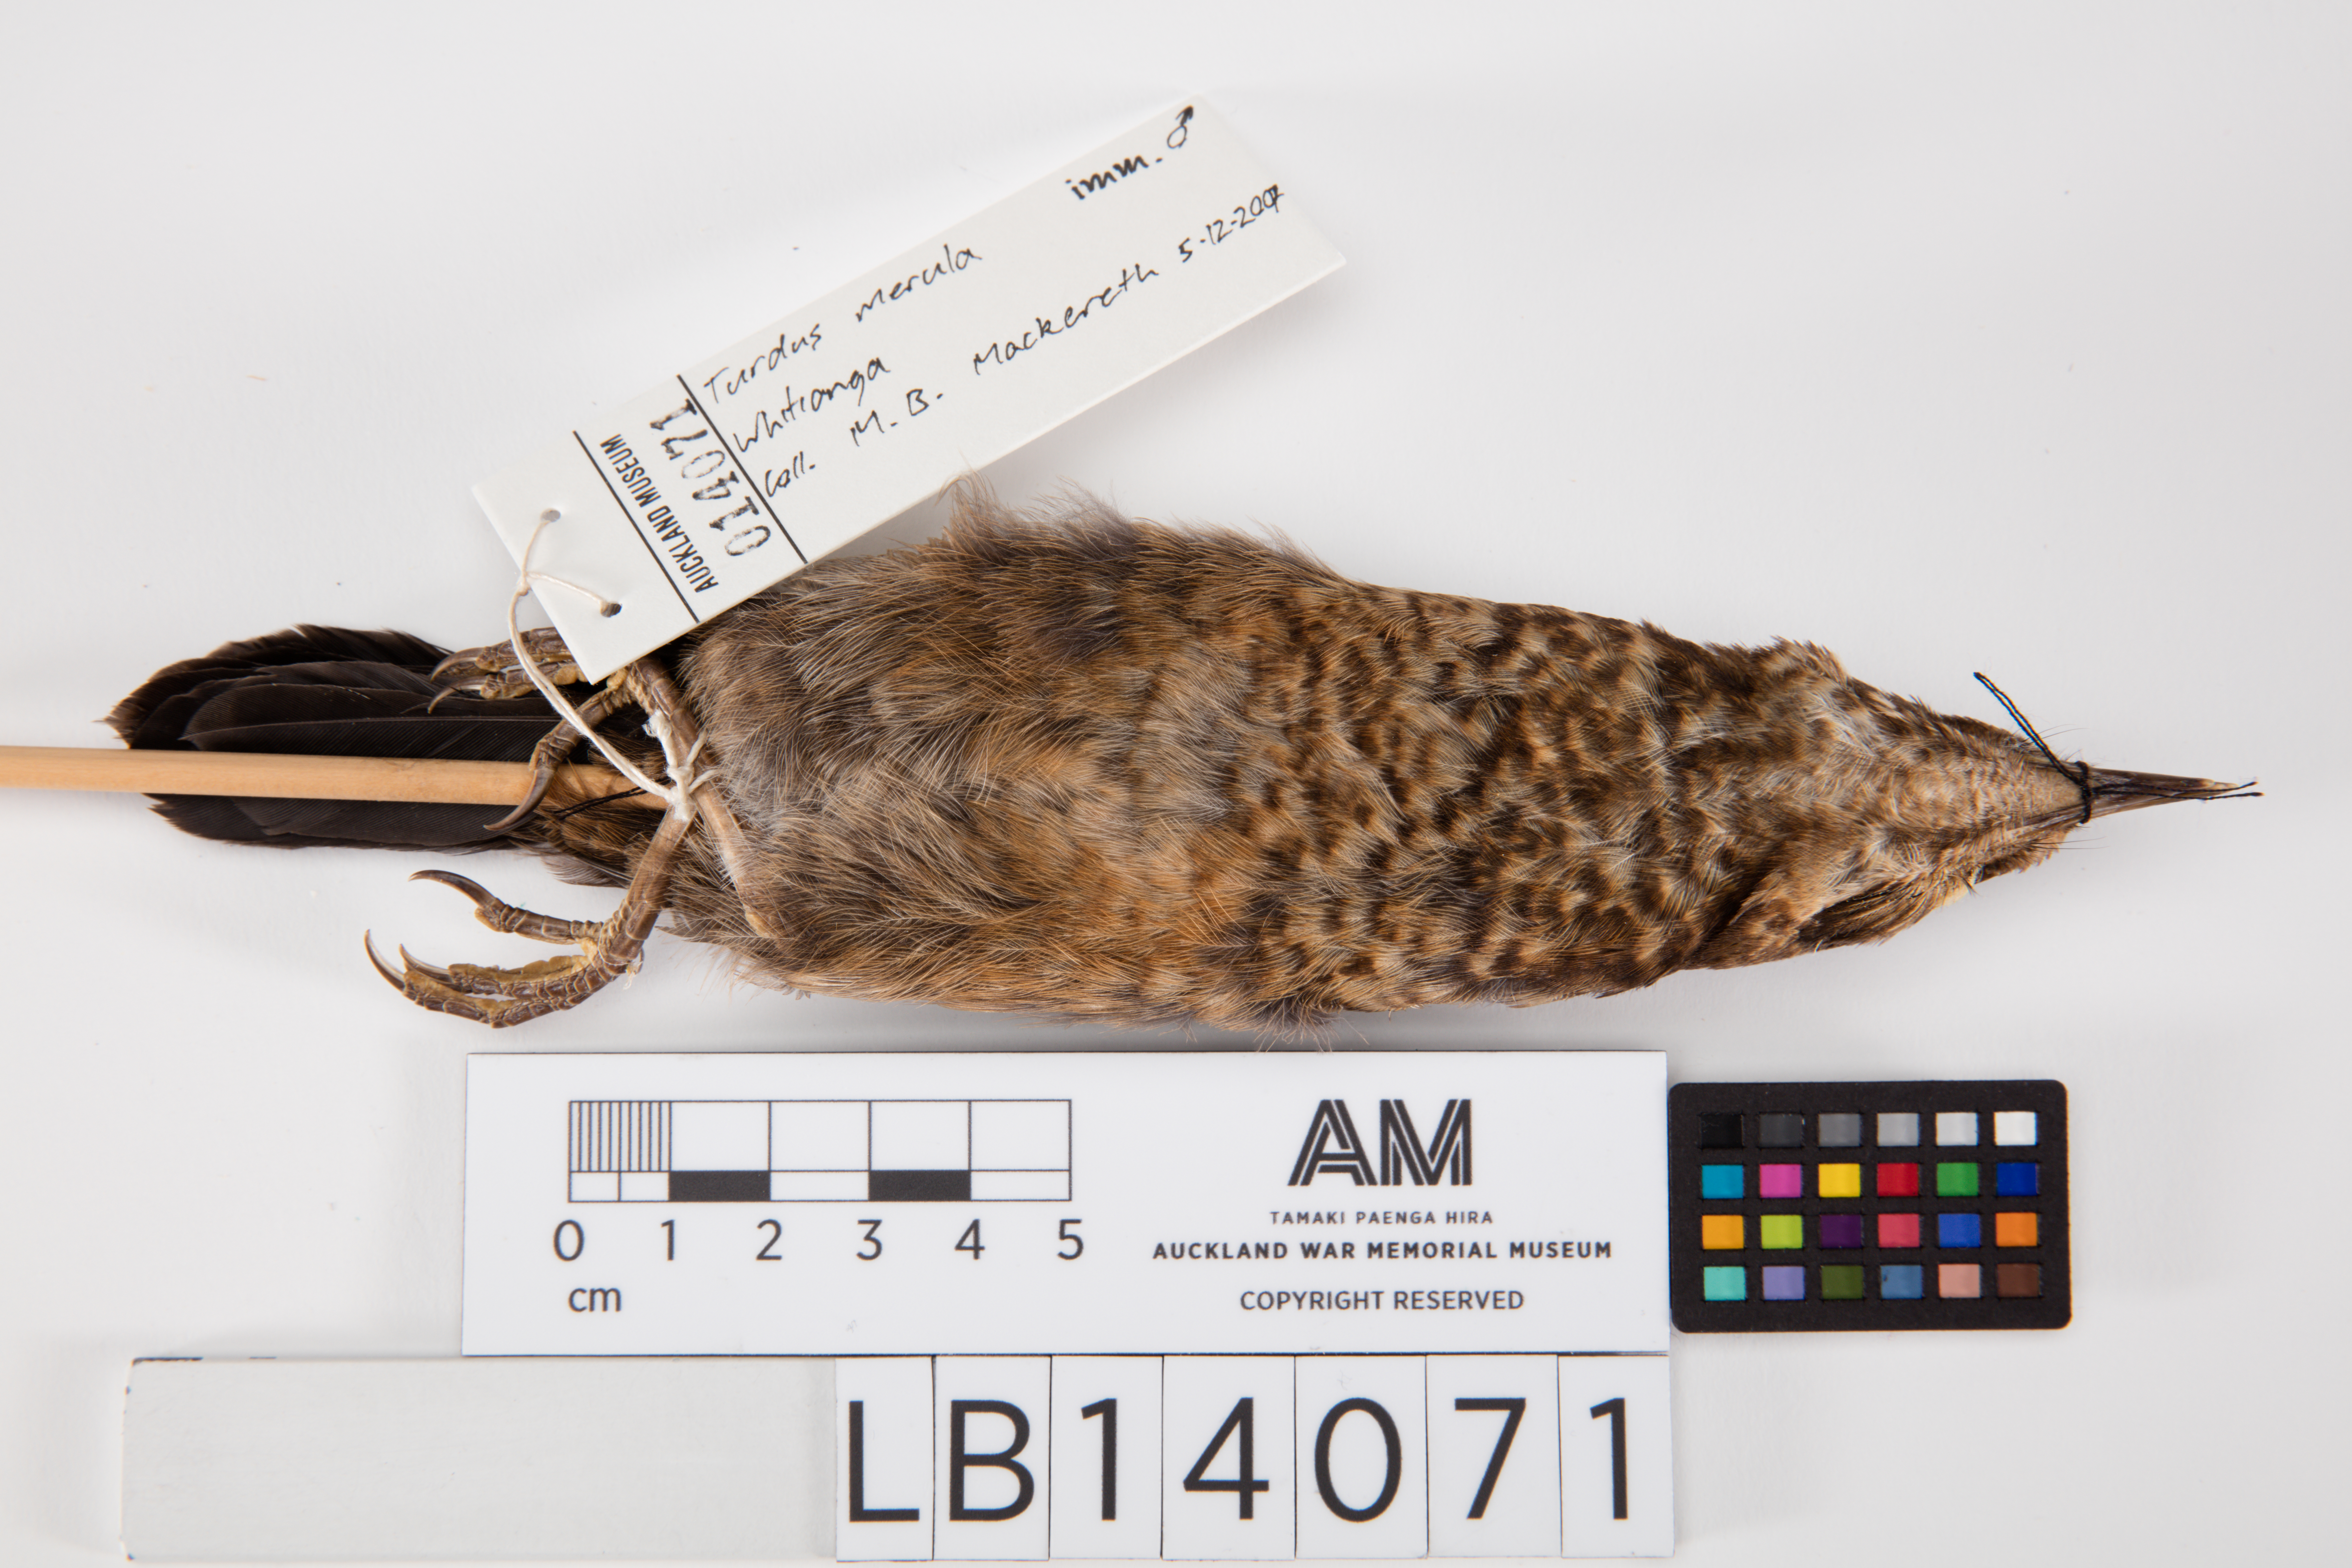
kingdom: Animalia
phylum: Chordata
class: Aves
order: Passeriformes
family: Turdidae
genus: Turdus
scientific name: Turdus merula
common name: Common blackbird
